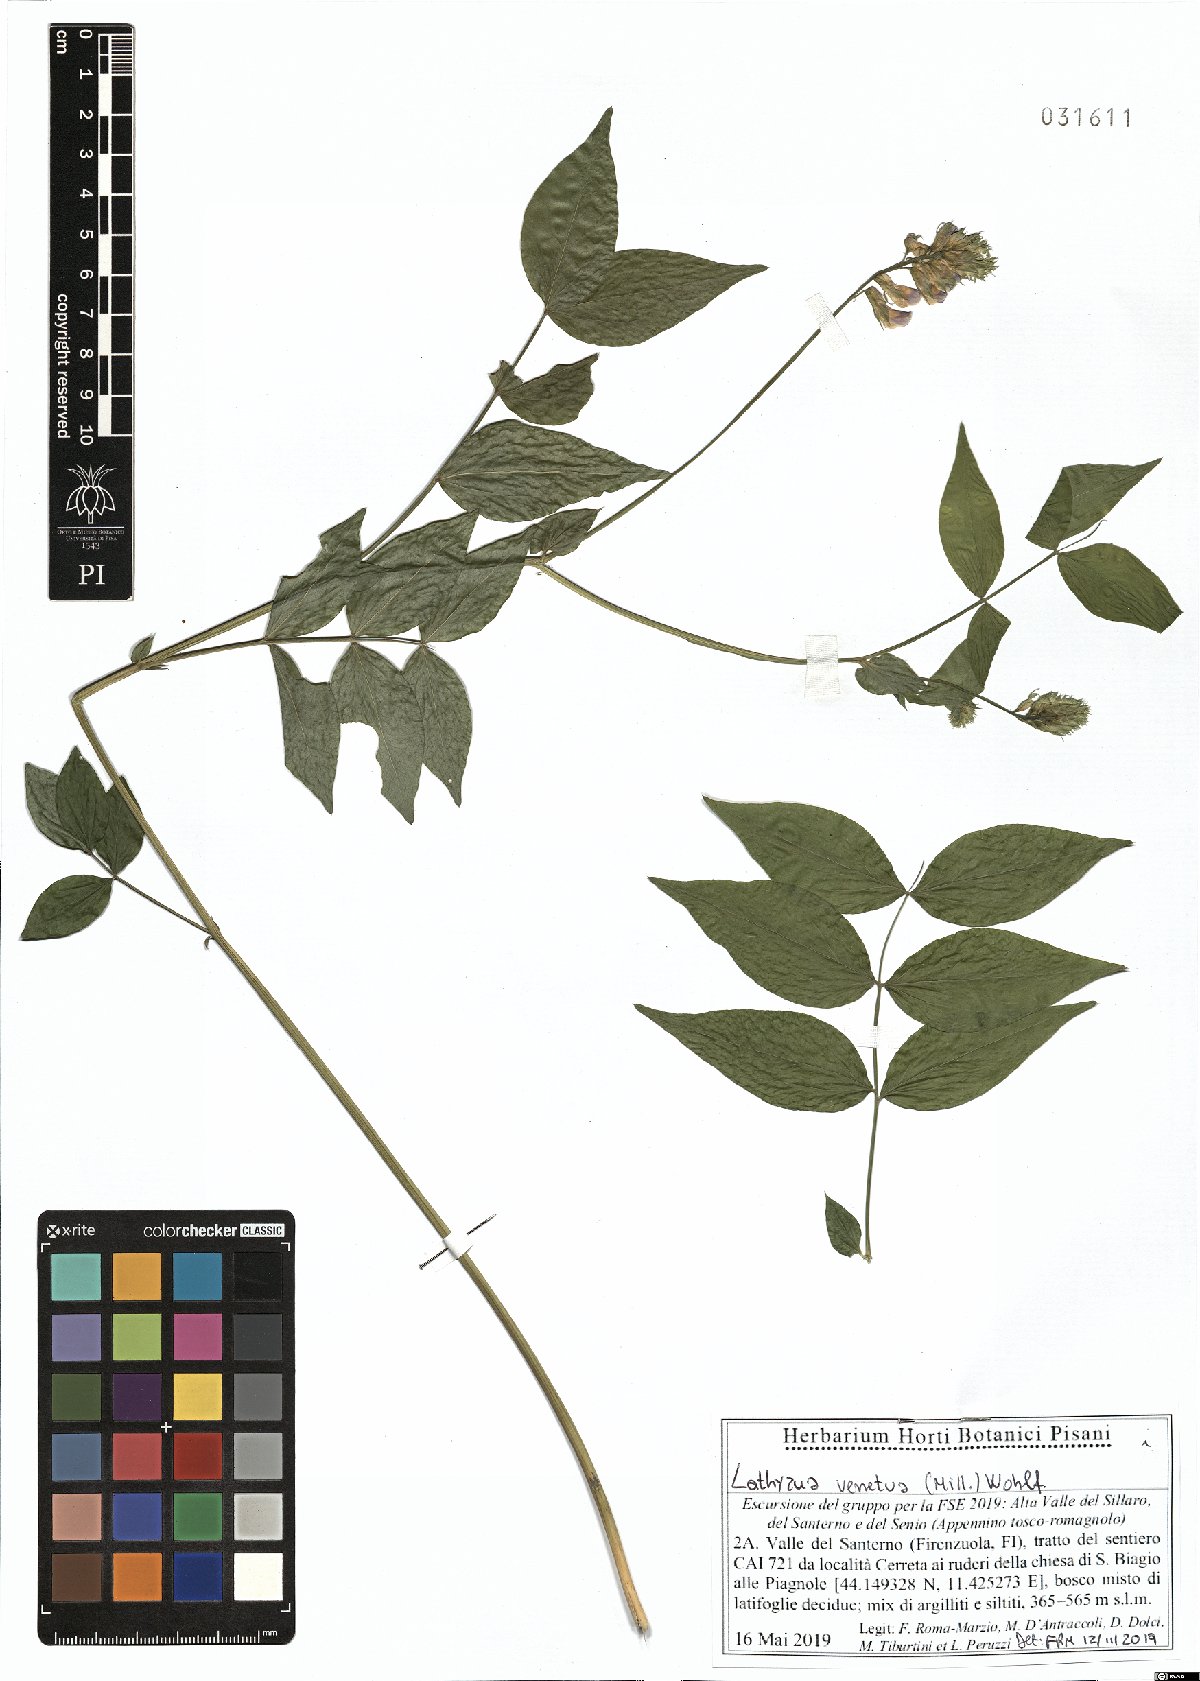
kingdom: Plantae
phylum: Tracheophyta
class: Magnoliopsida
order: Fabales
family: Fabaceae
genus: Lathyrus
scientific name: Lathyrus venetus
